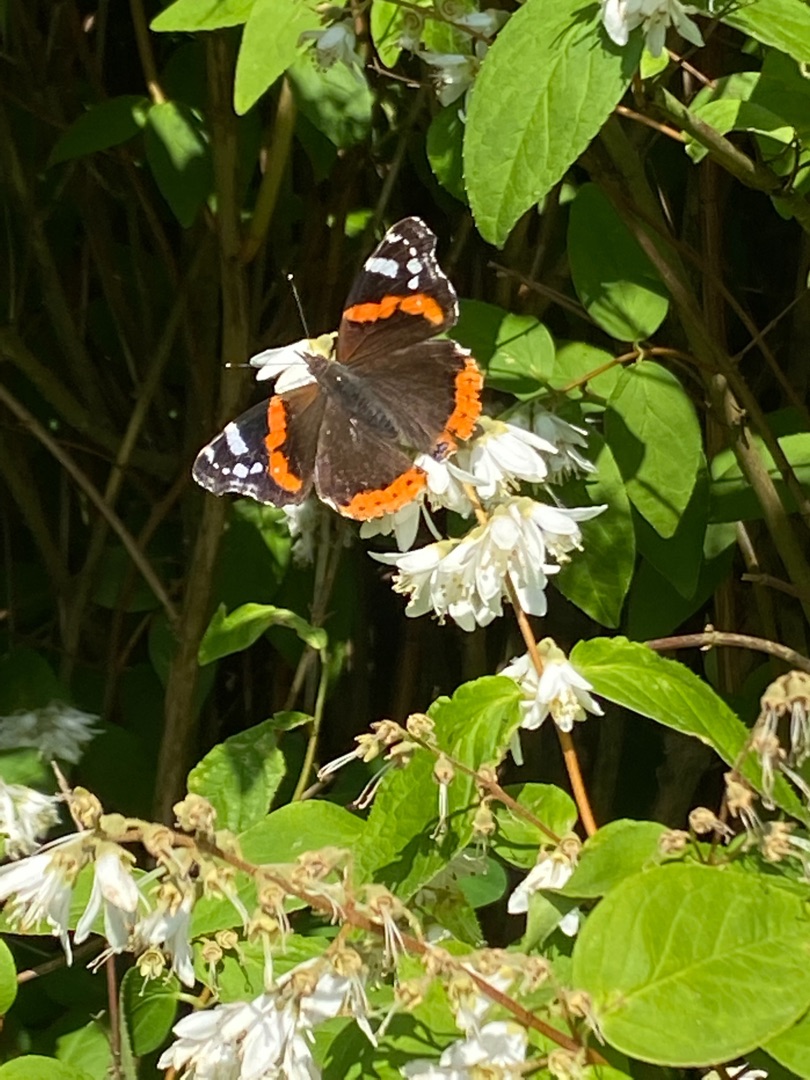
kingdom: Animalia
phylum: Arthropoda
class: Insecta
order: Lepidoptera
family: Nymphalidae
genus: Vanessa
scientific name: Vanessa atalanta
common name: Admiral
